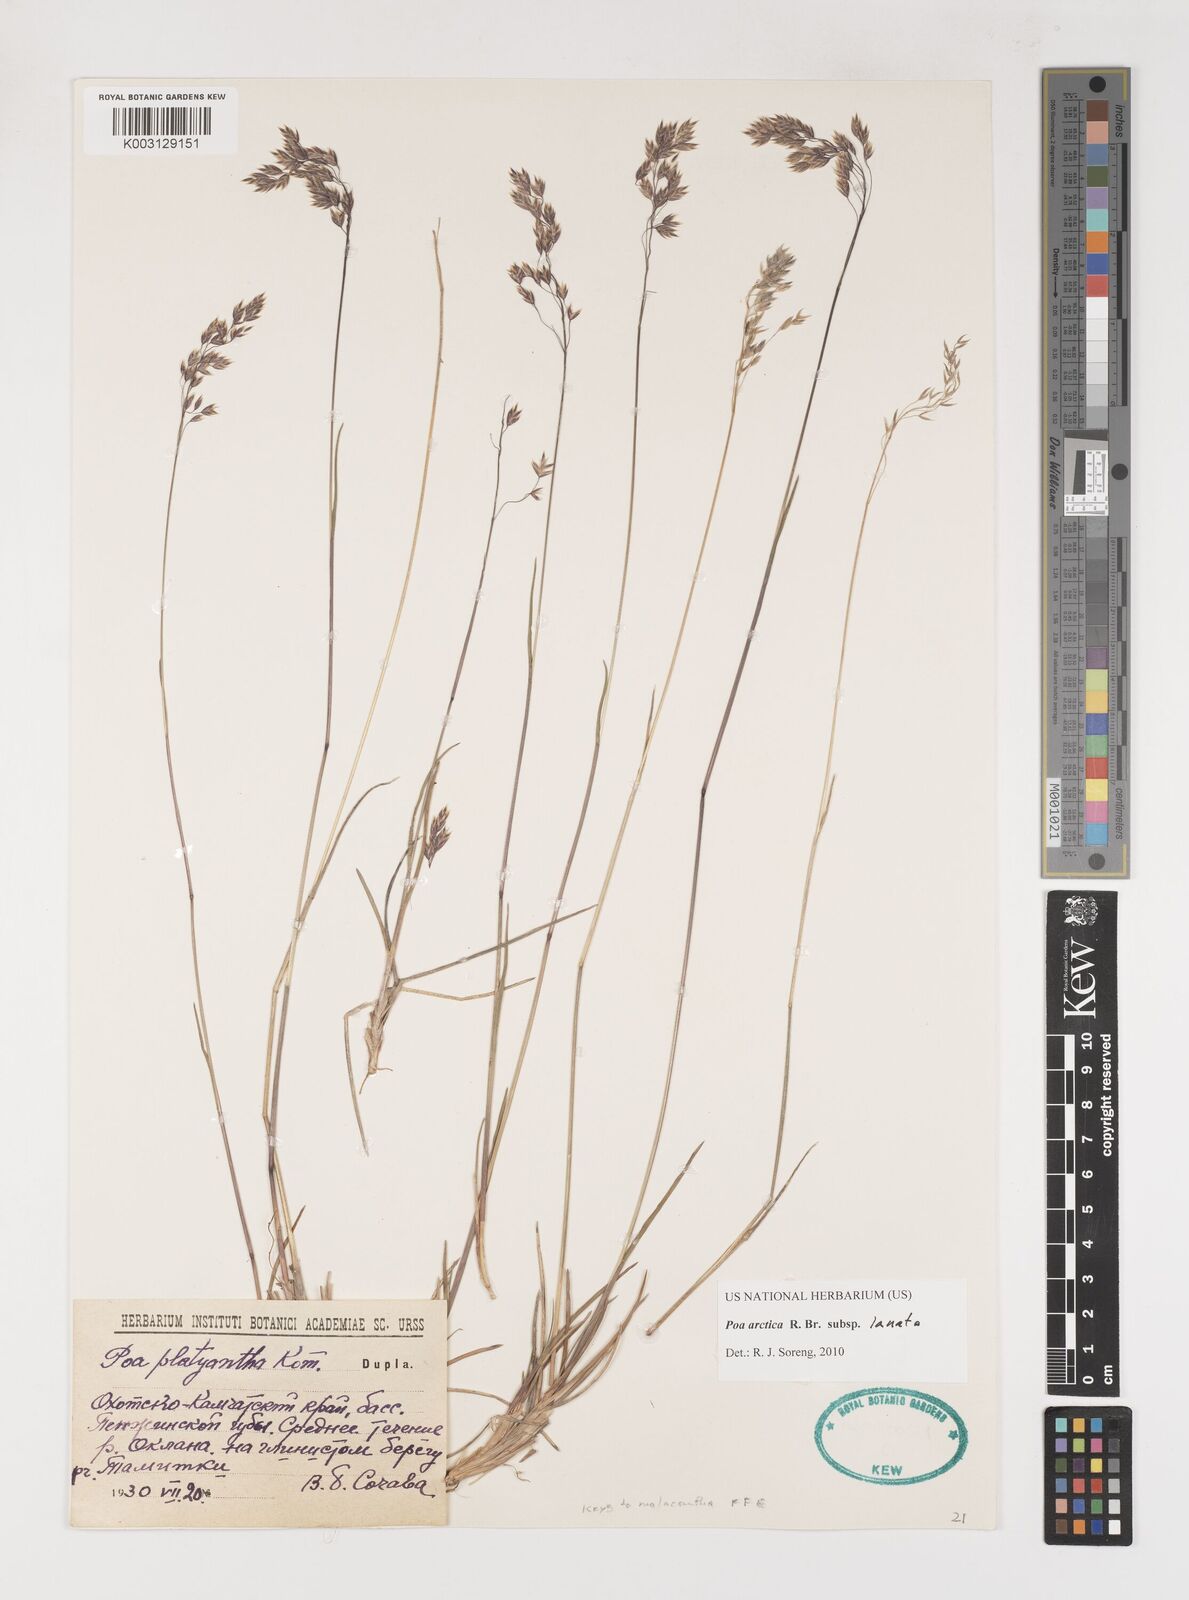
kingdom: Plantae
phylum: Tracheophyta
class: Liliopsida
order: Poales
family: Poaceae
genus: Poa
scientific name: Poa arctica
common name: Arctic bluegrass
